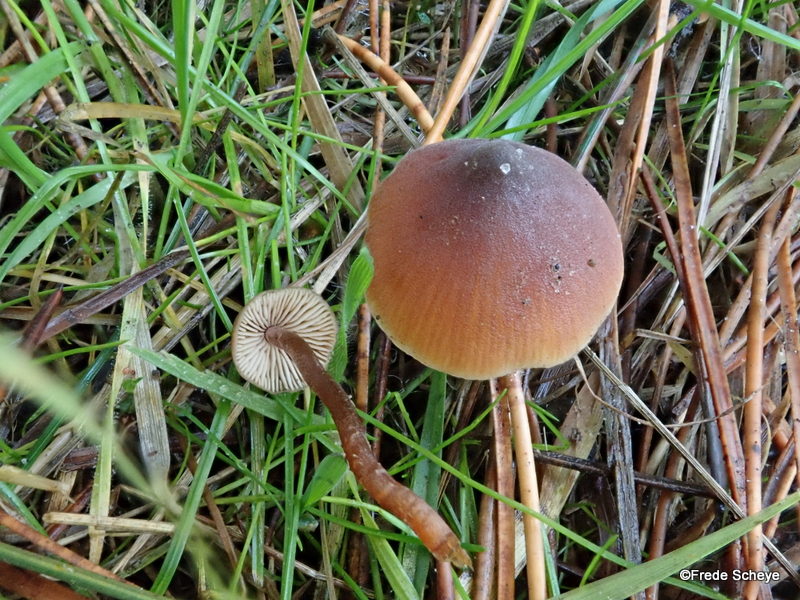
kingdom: Fungi
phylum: Basidiomycota
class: Agaricomycetes
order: Agaricales
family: Macrocystidiaceae
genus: Macrocystidia
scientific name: Macrocystidia cucumis
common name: agurkehat
